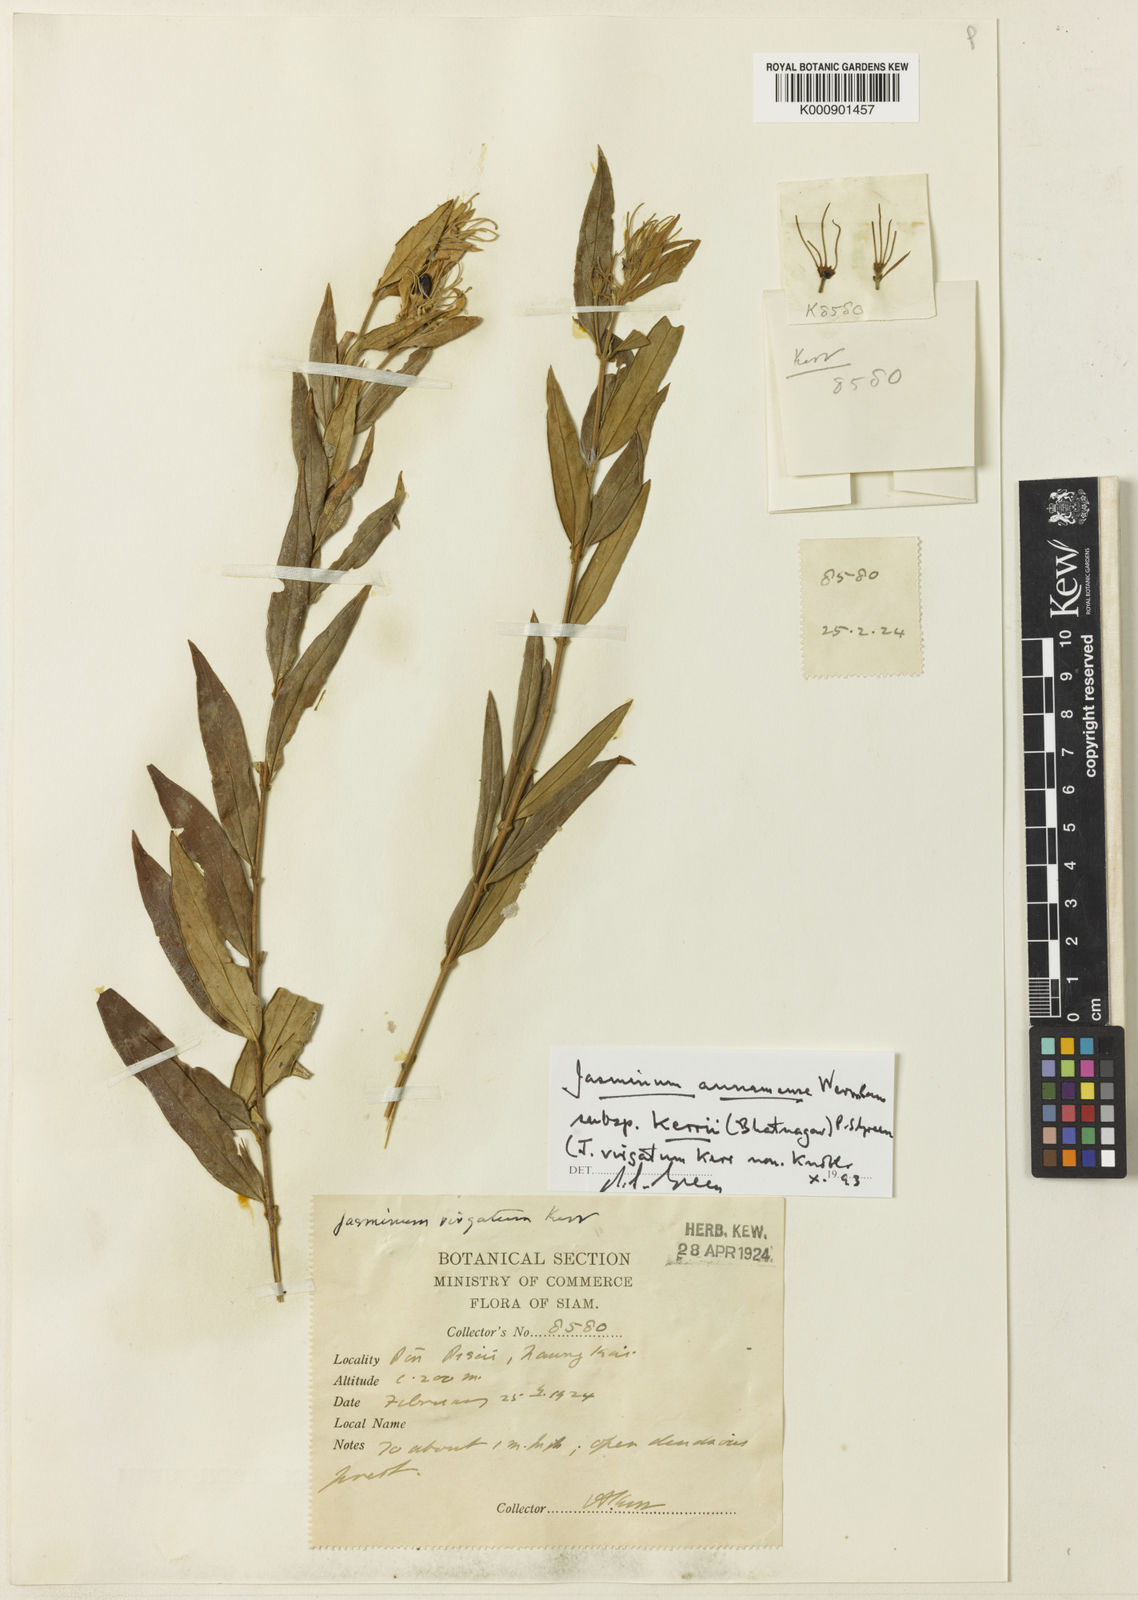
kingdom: Plantae
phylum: Tracheophyta
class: Magnoliopsida
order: Lamiales
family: Oleaceae
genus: Jasminum
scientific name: Jasminum annamense
